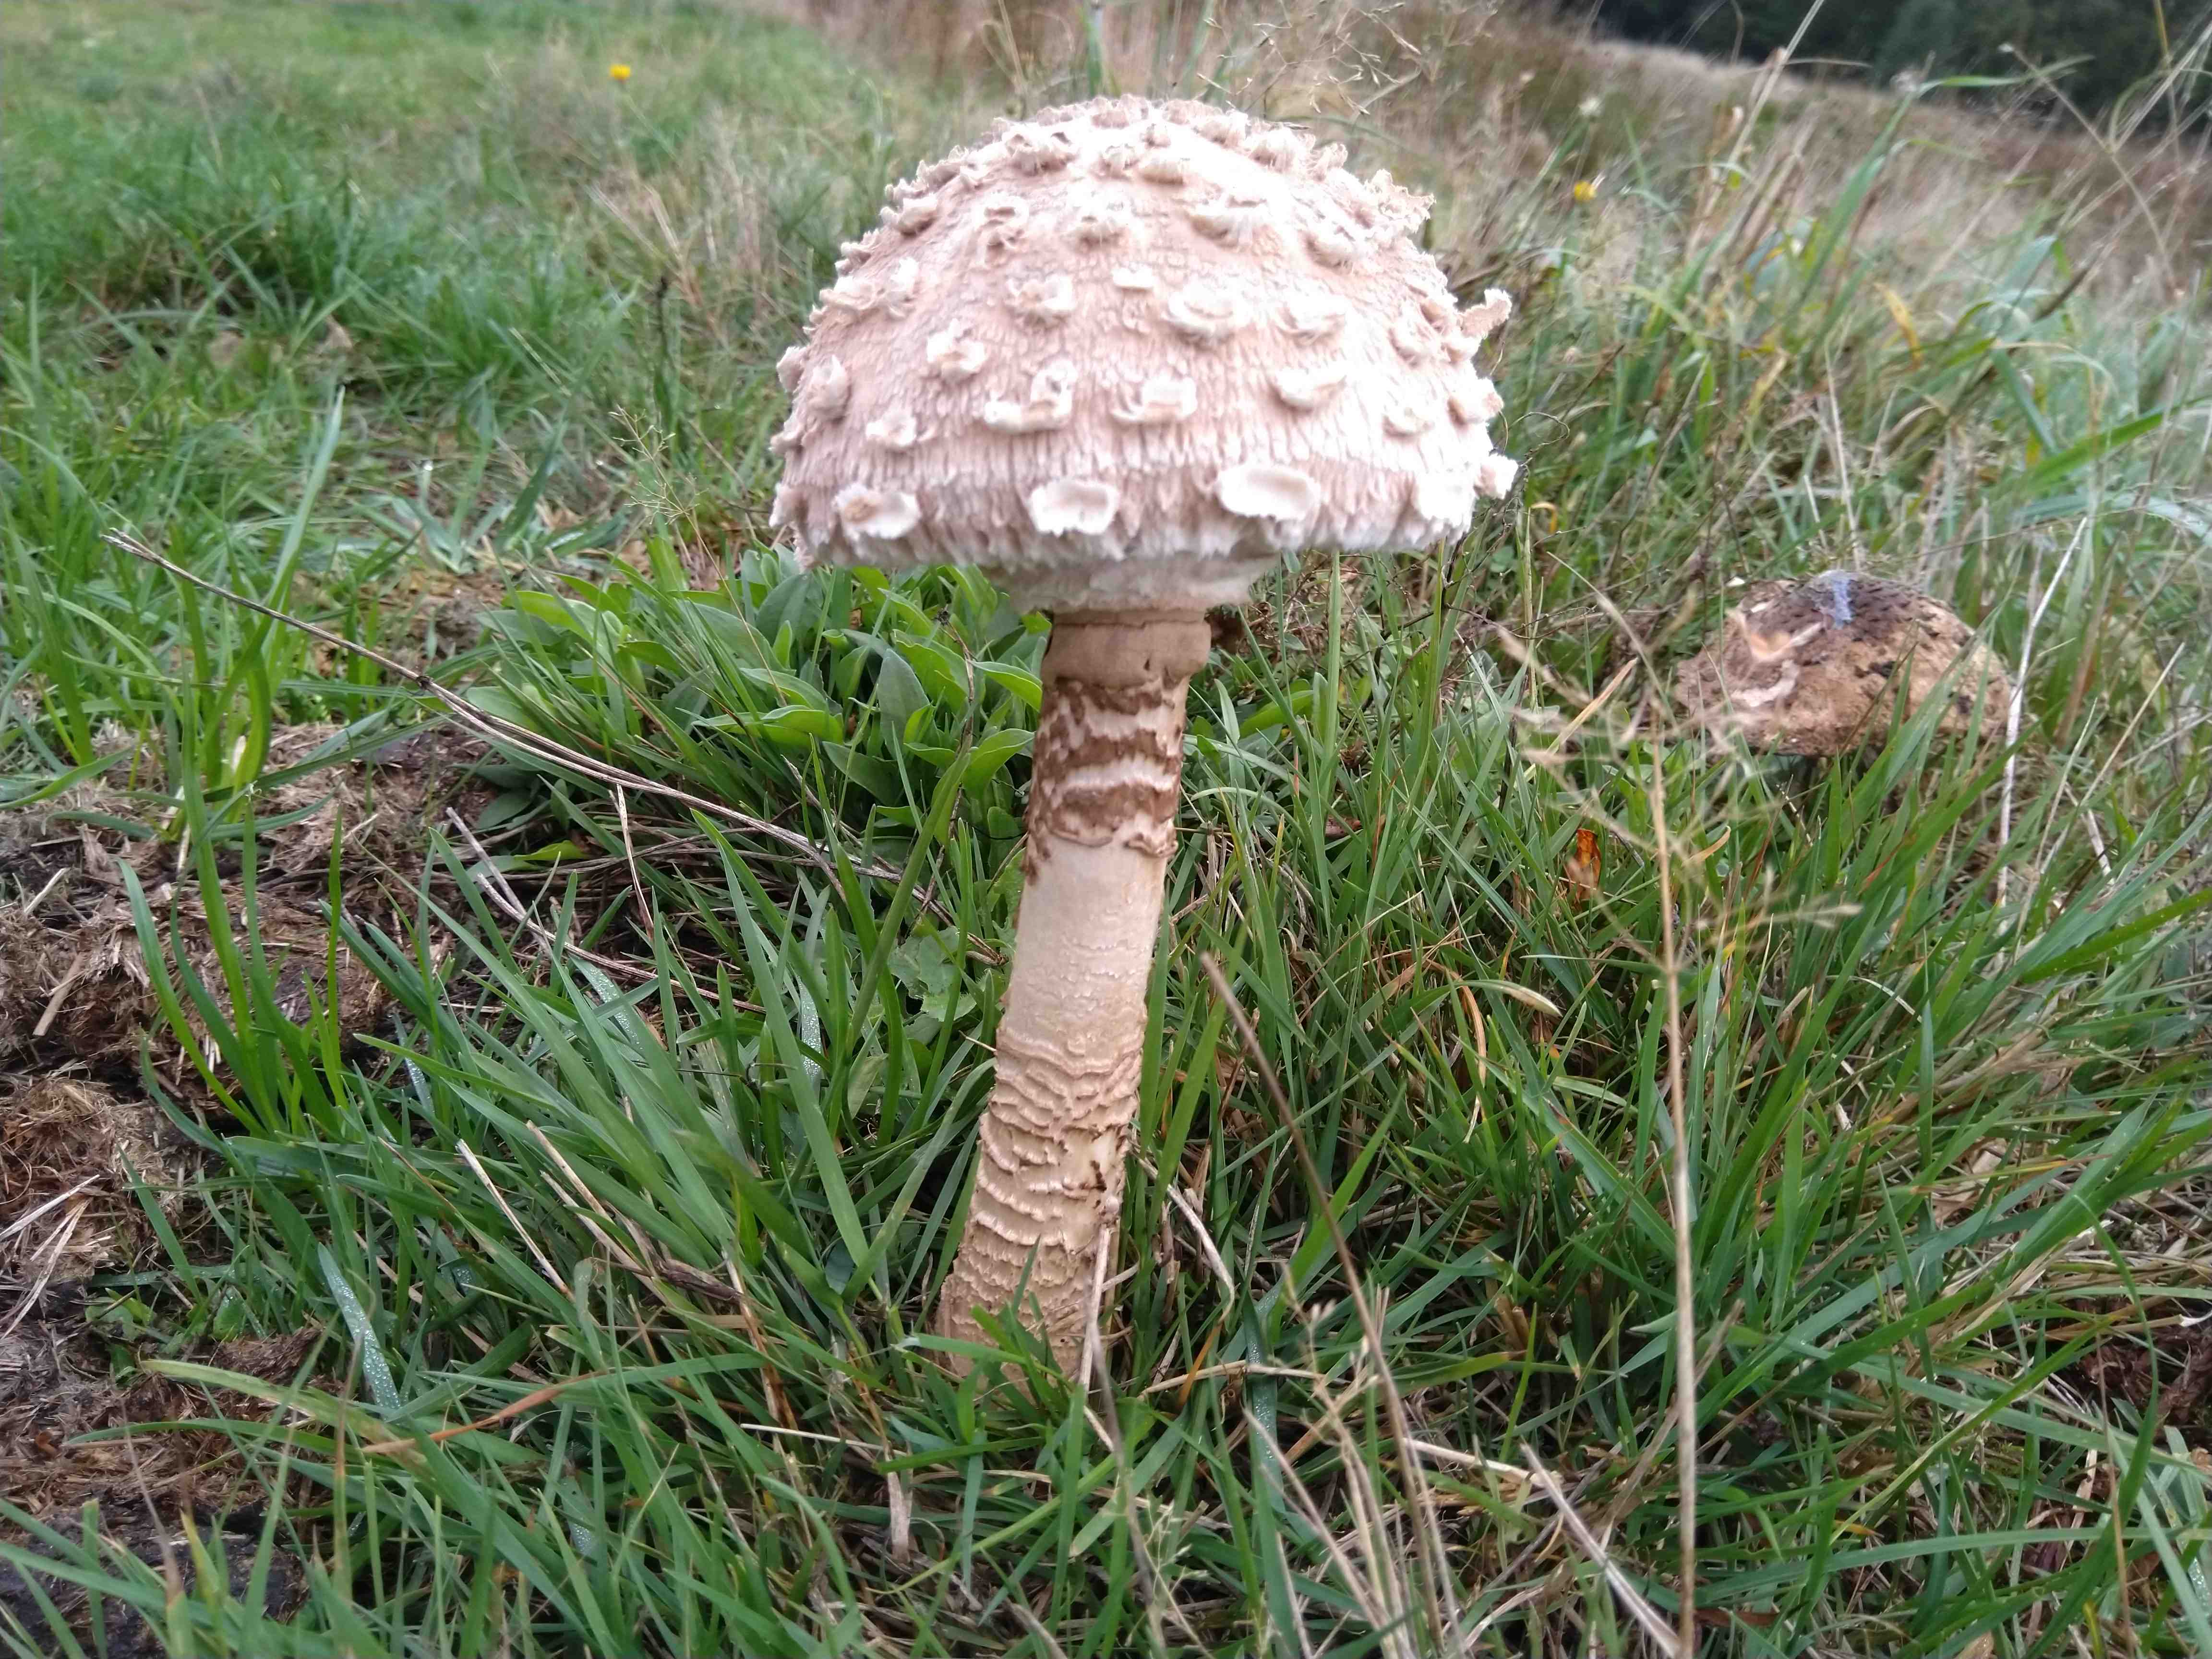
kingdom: Fungi
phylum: Basidiomycota
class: Agaricomycetes
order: Agaricales
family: Agaricaceae
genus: Macrolepiota
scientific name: Macrolepiota procera
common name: stor kæmpeparasolhat
